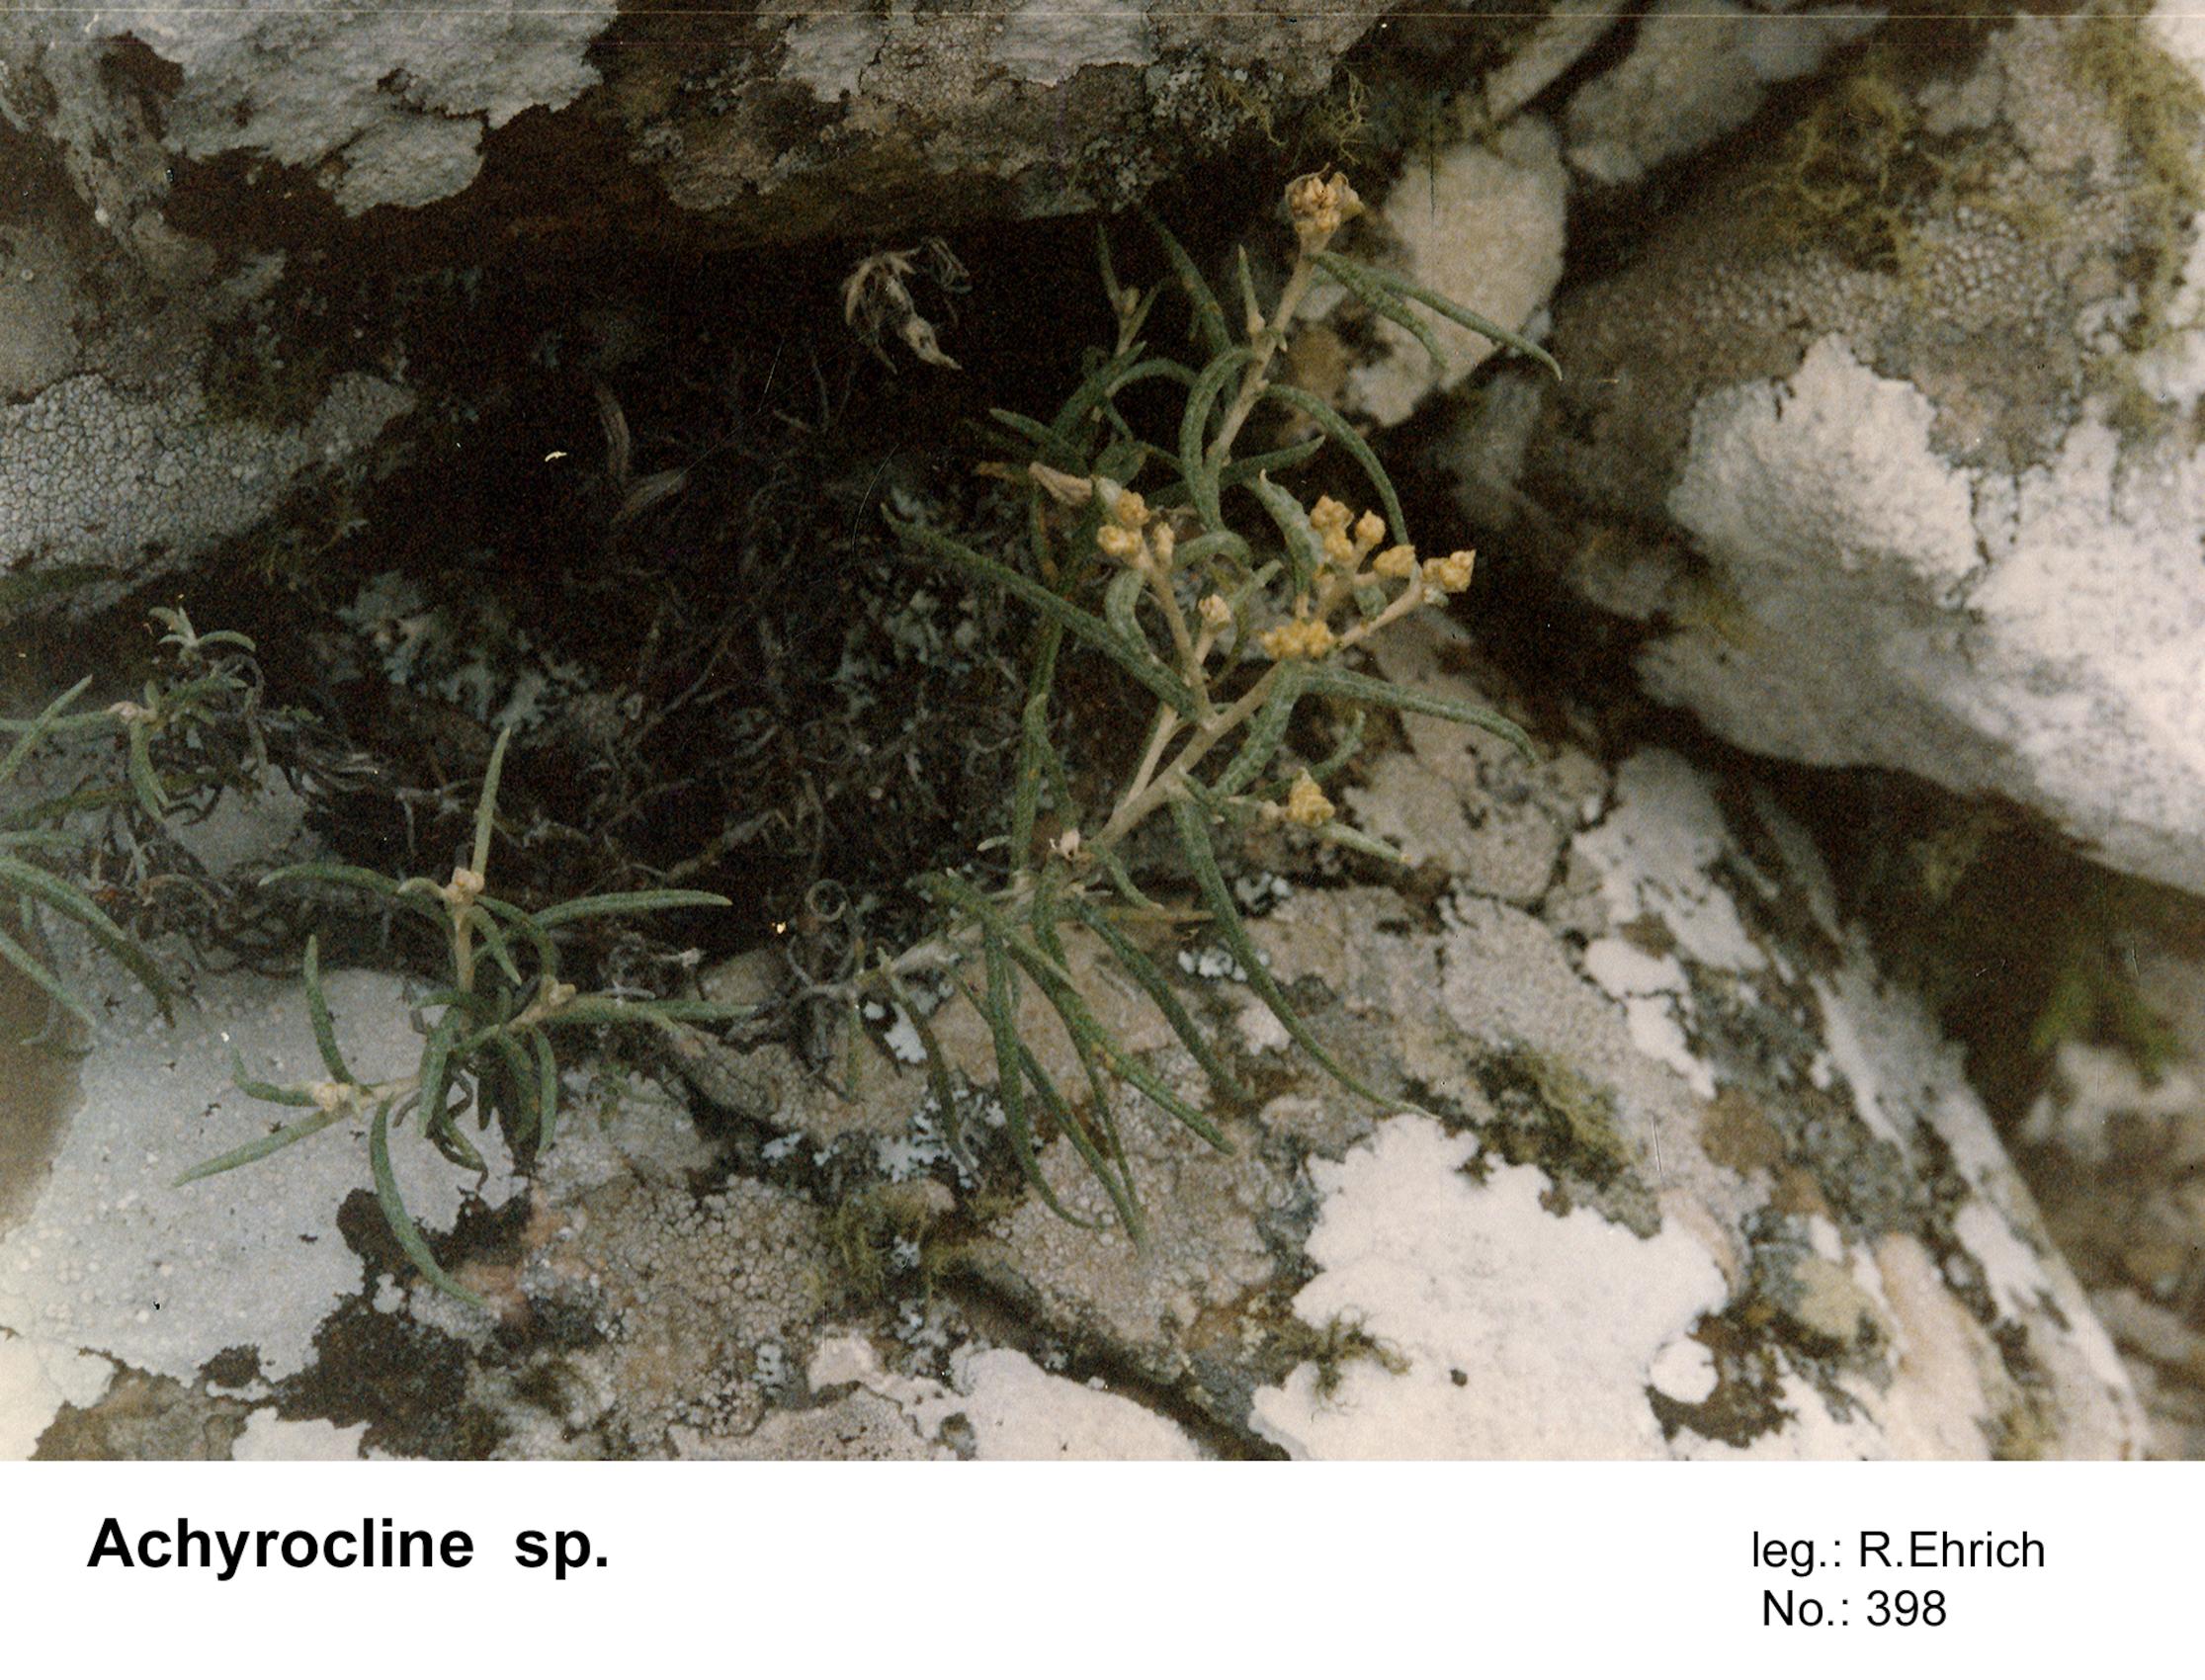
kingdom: Plantae
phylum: Tracheophyta
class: Magnoliopsida
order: Asterales
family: Asteraceae
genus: Achyrocline
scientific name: Achyrocline
